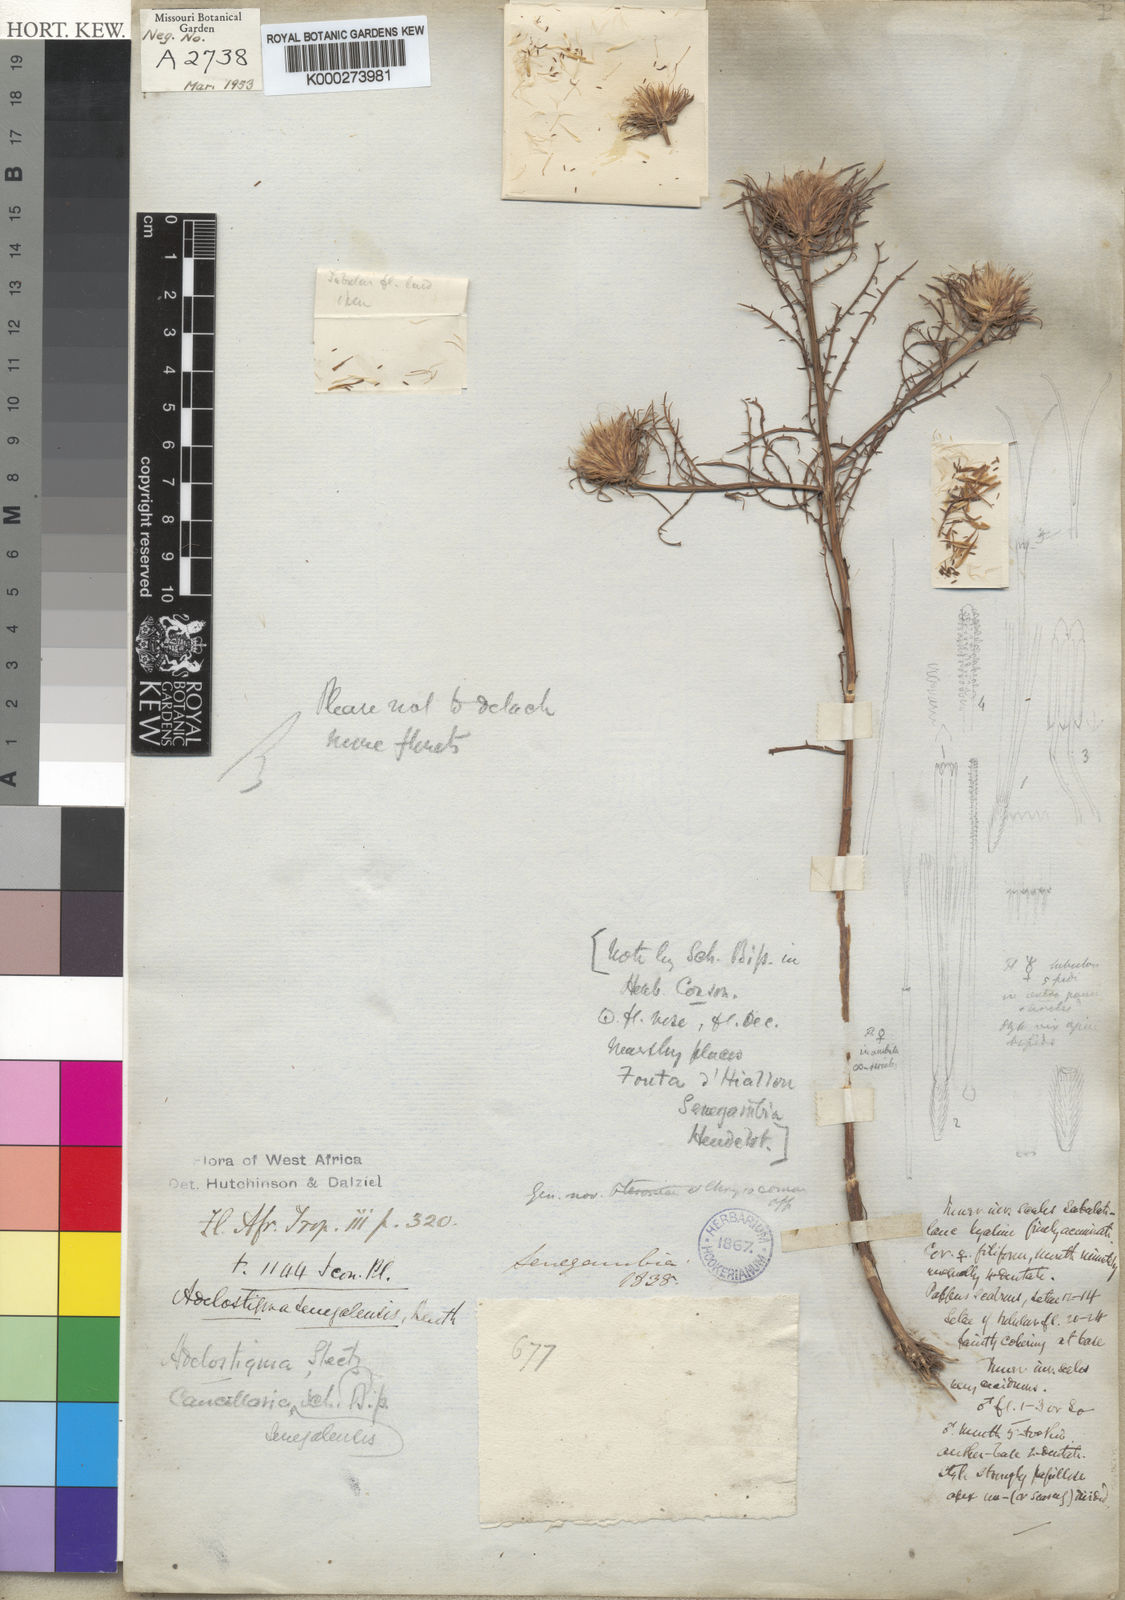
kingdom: Plantae
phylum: Tracheophyta
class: Magnoliopsida
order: Asterales
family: Asteraceae
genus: Adelostigma
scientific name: Adelostigma senegalensis
